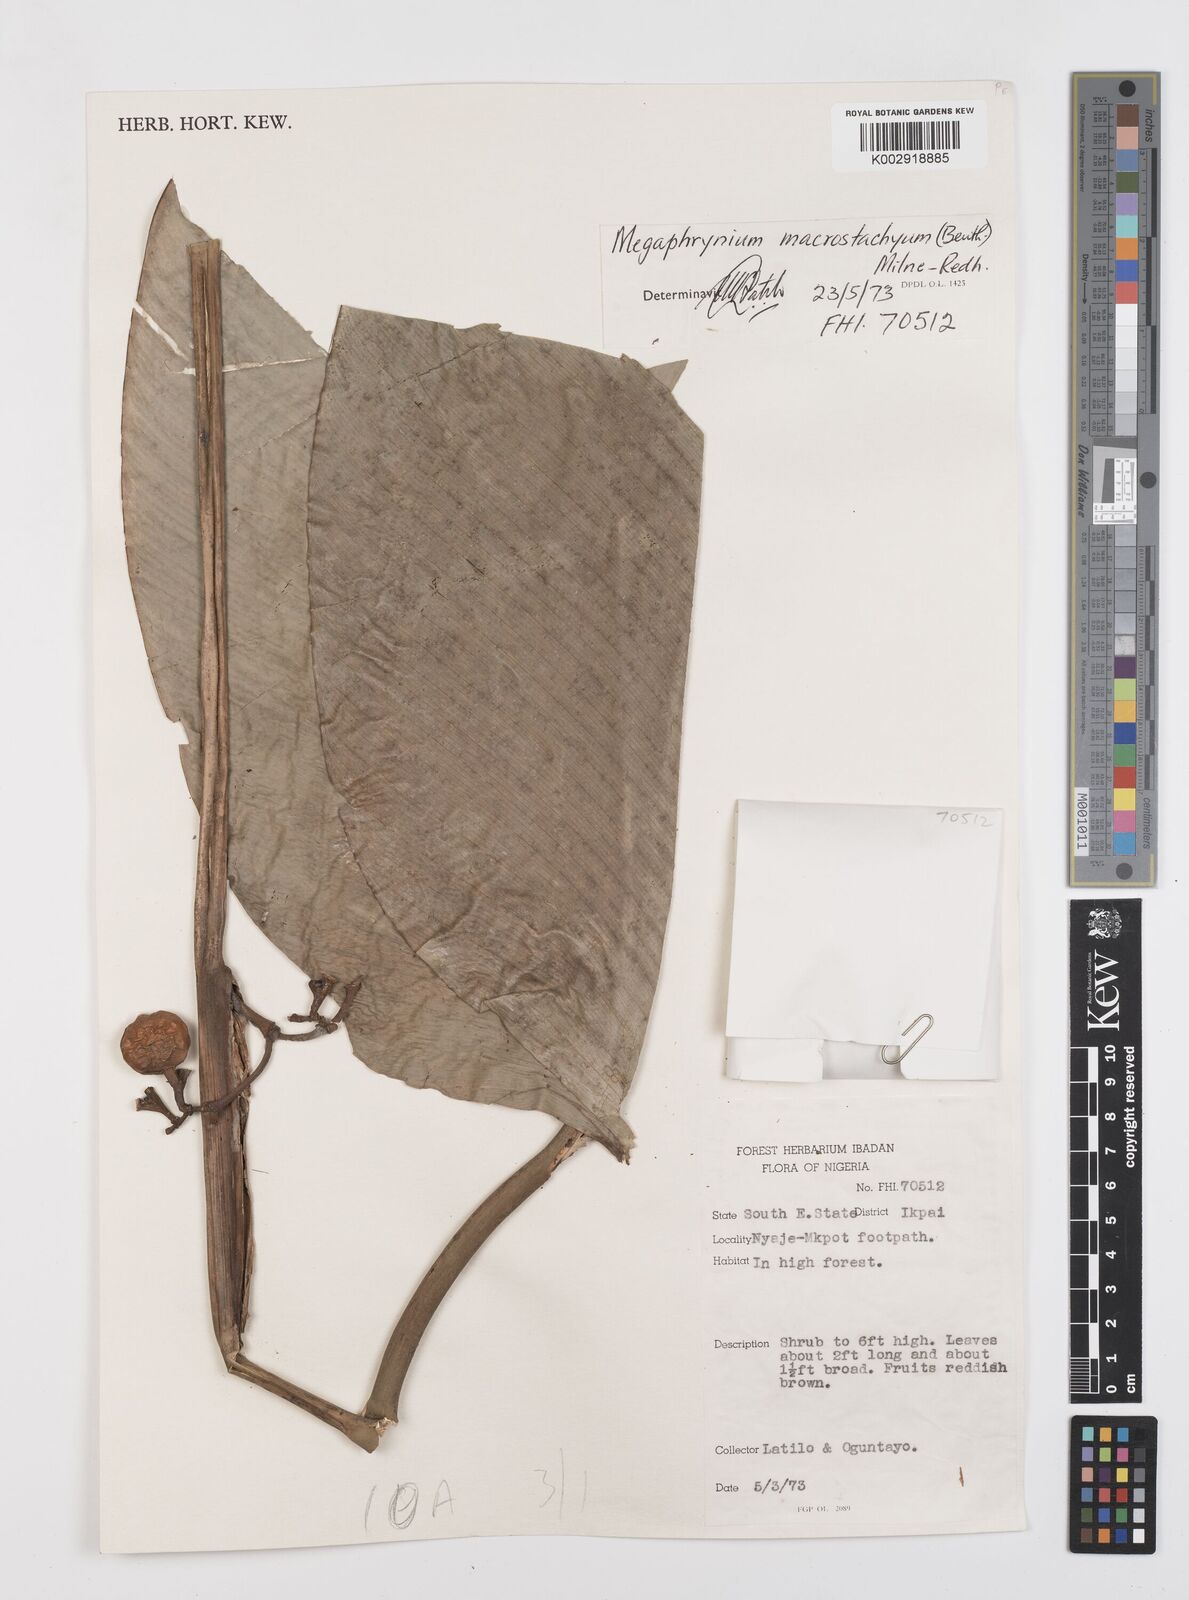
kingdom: Plantae
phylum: Tracheophyta
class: Liliopsida
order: Zingiberales
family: Marantaceae
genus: Megaphrynium
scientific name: Megaphrynium macrostachyum
